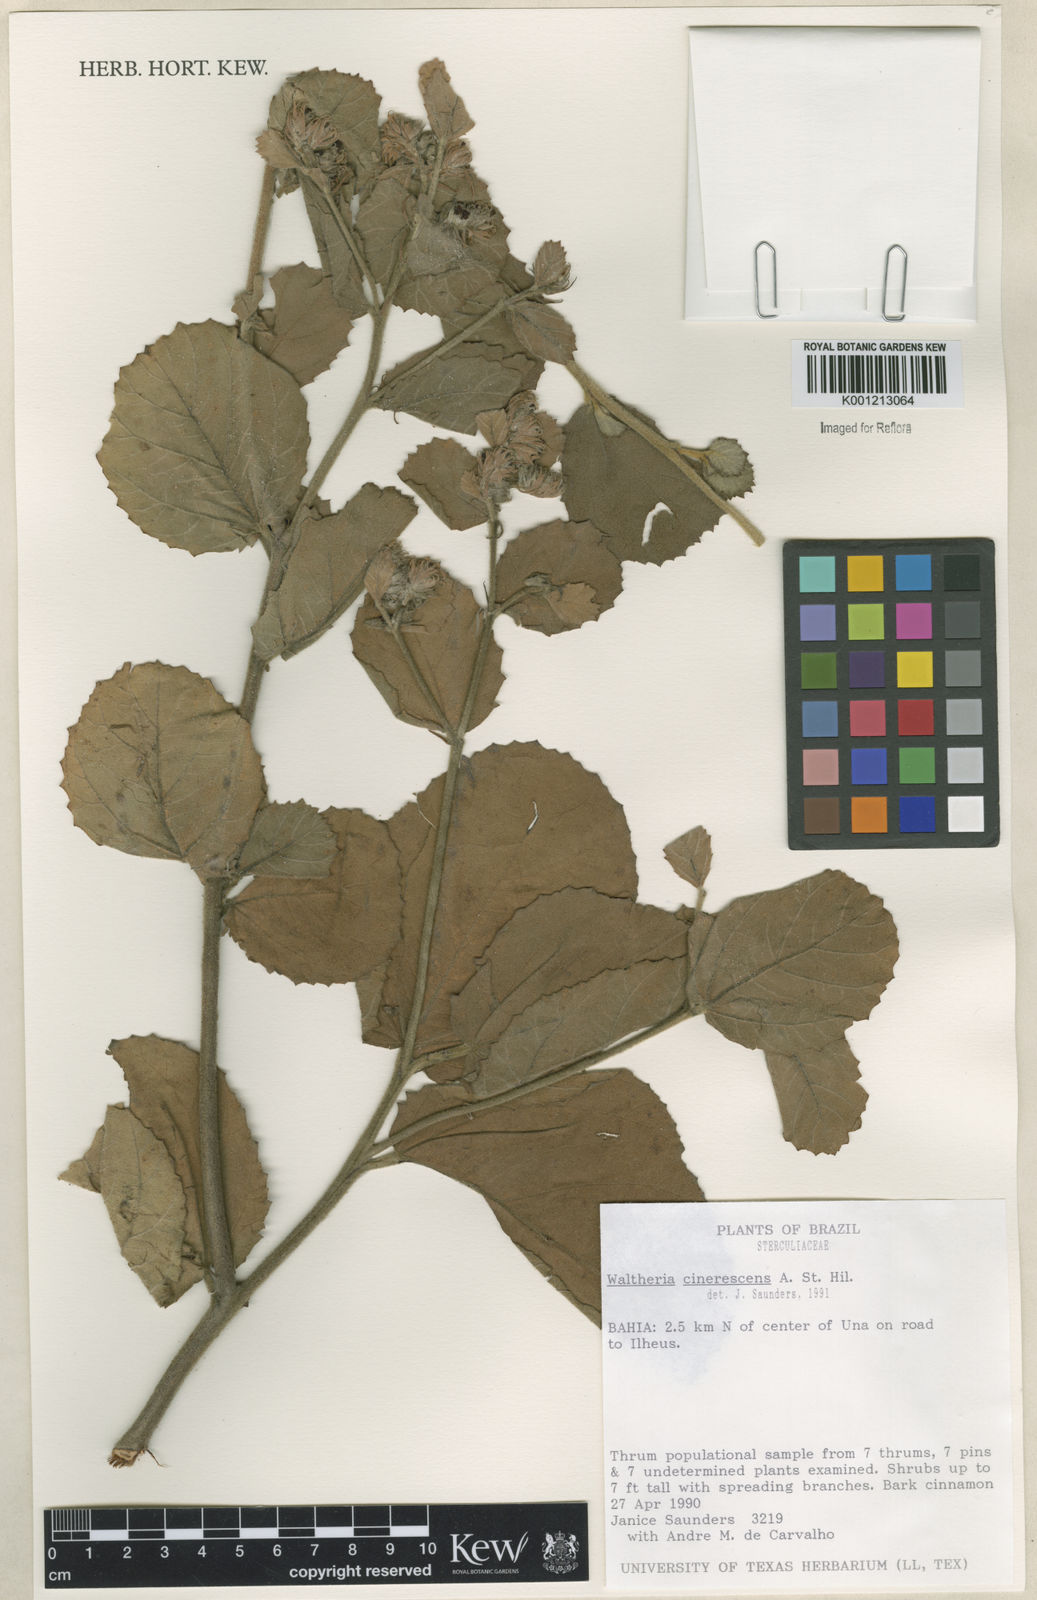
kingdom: Plantae
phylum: Tracheophyta
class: Magnoliopsida
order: Malvales
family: Malvaceae
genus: Waltheria
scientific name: Waltheria cinerescens
